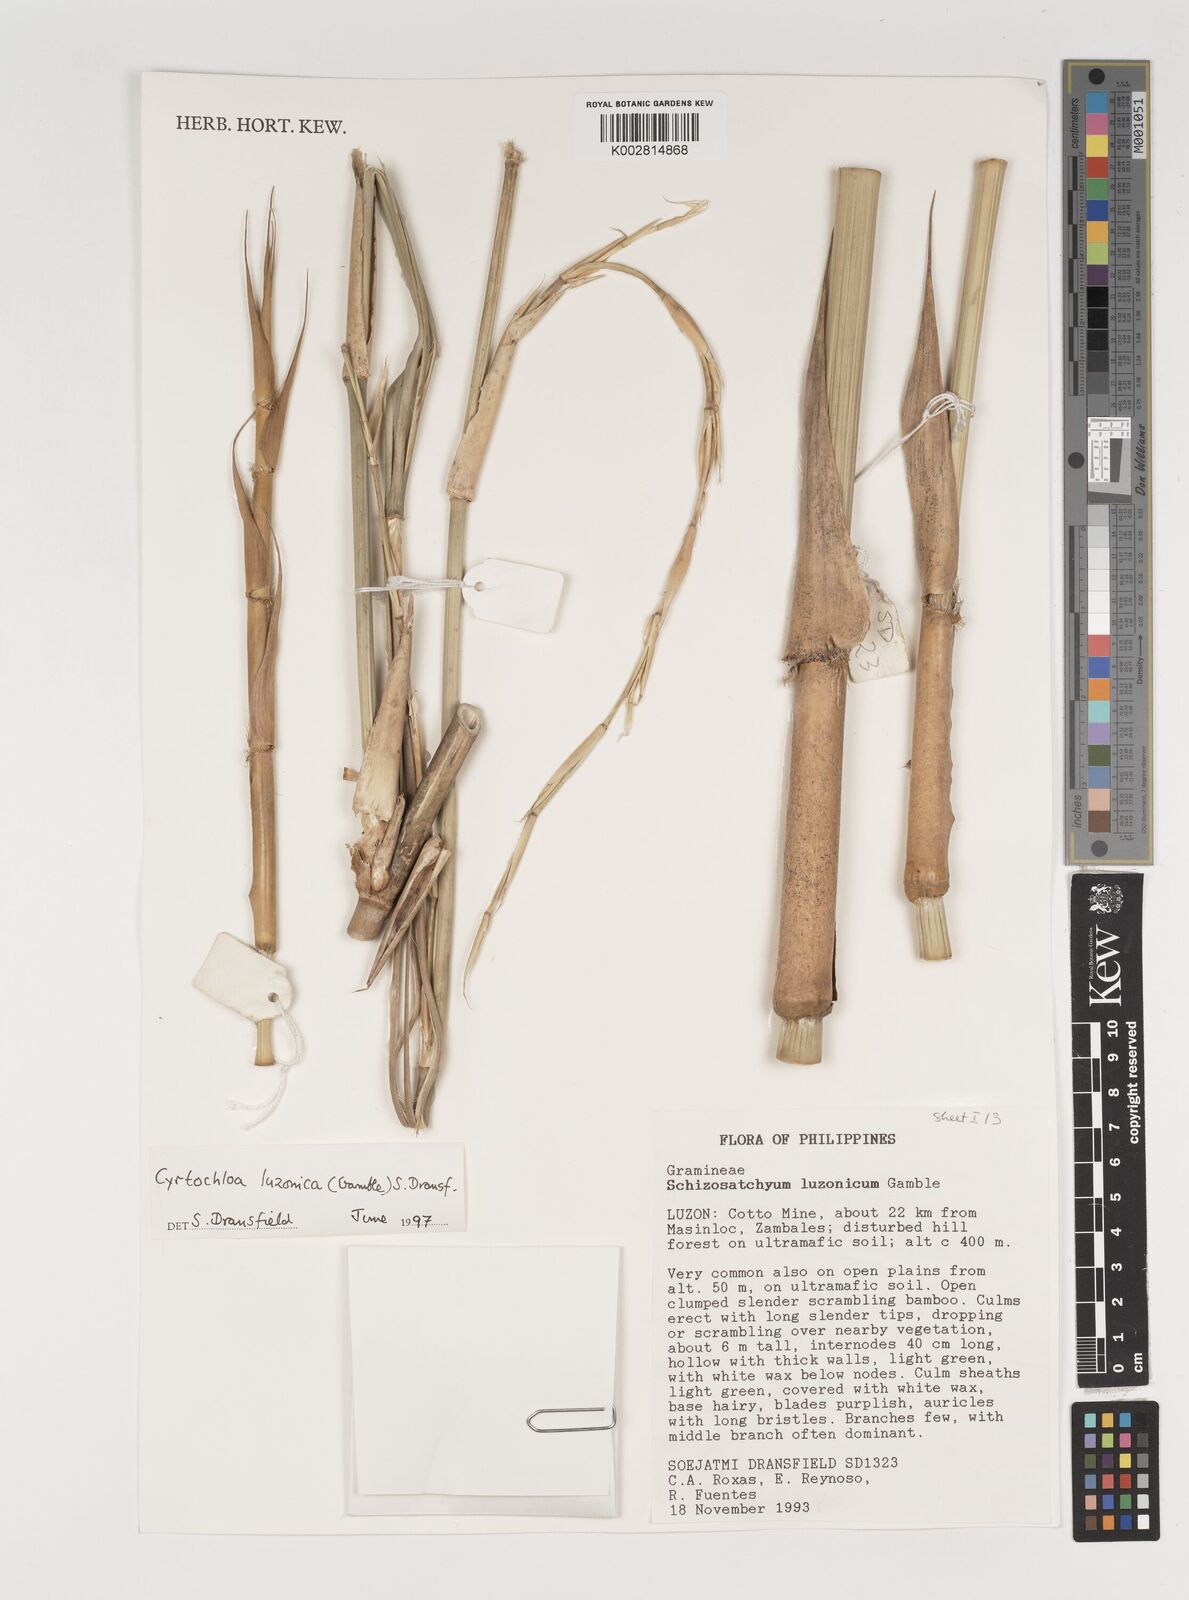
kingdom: Plantae
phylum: Tracheophyta
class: Liliopsida
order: Poales
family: Poaceae
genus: Cyrtochloa
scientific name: Cyrtochloa luzonica
